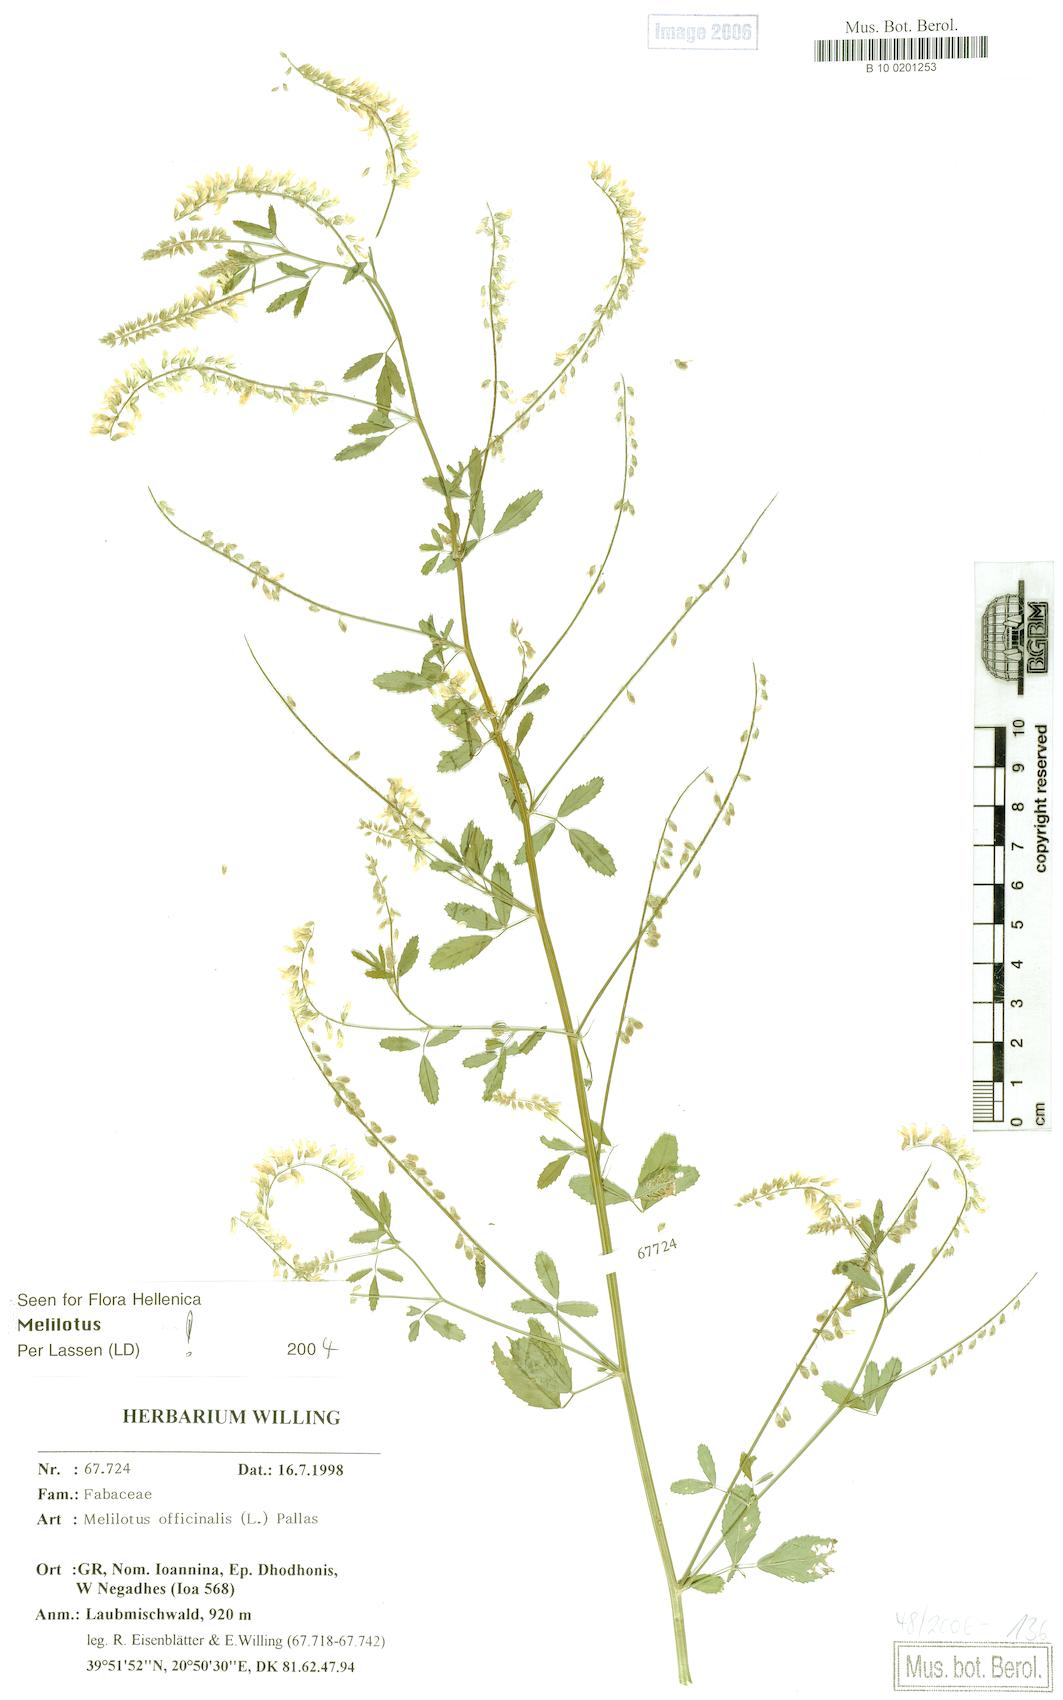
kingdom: Plantae
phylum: Tracheophyta
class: Magnoliopsida
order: Fabales
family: Fabaceae
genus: Melilotus
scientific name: Melilotus officinalis
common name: Sweetclover
